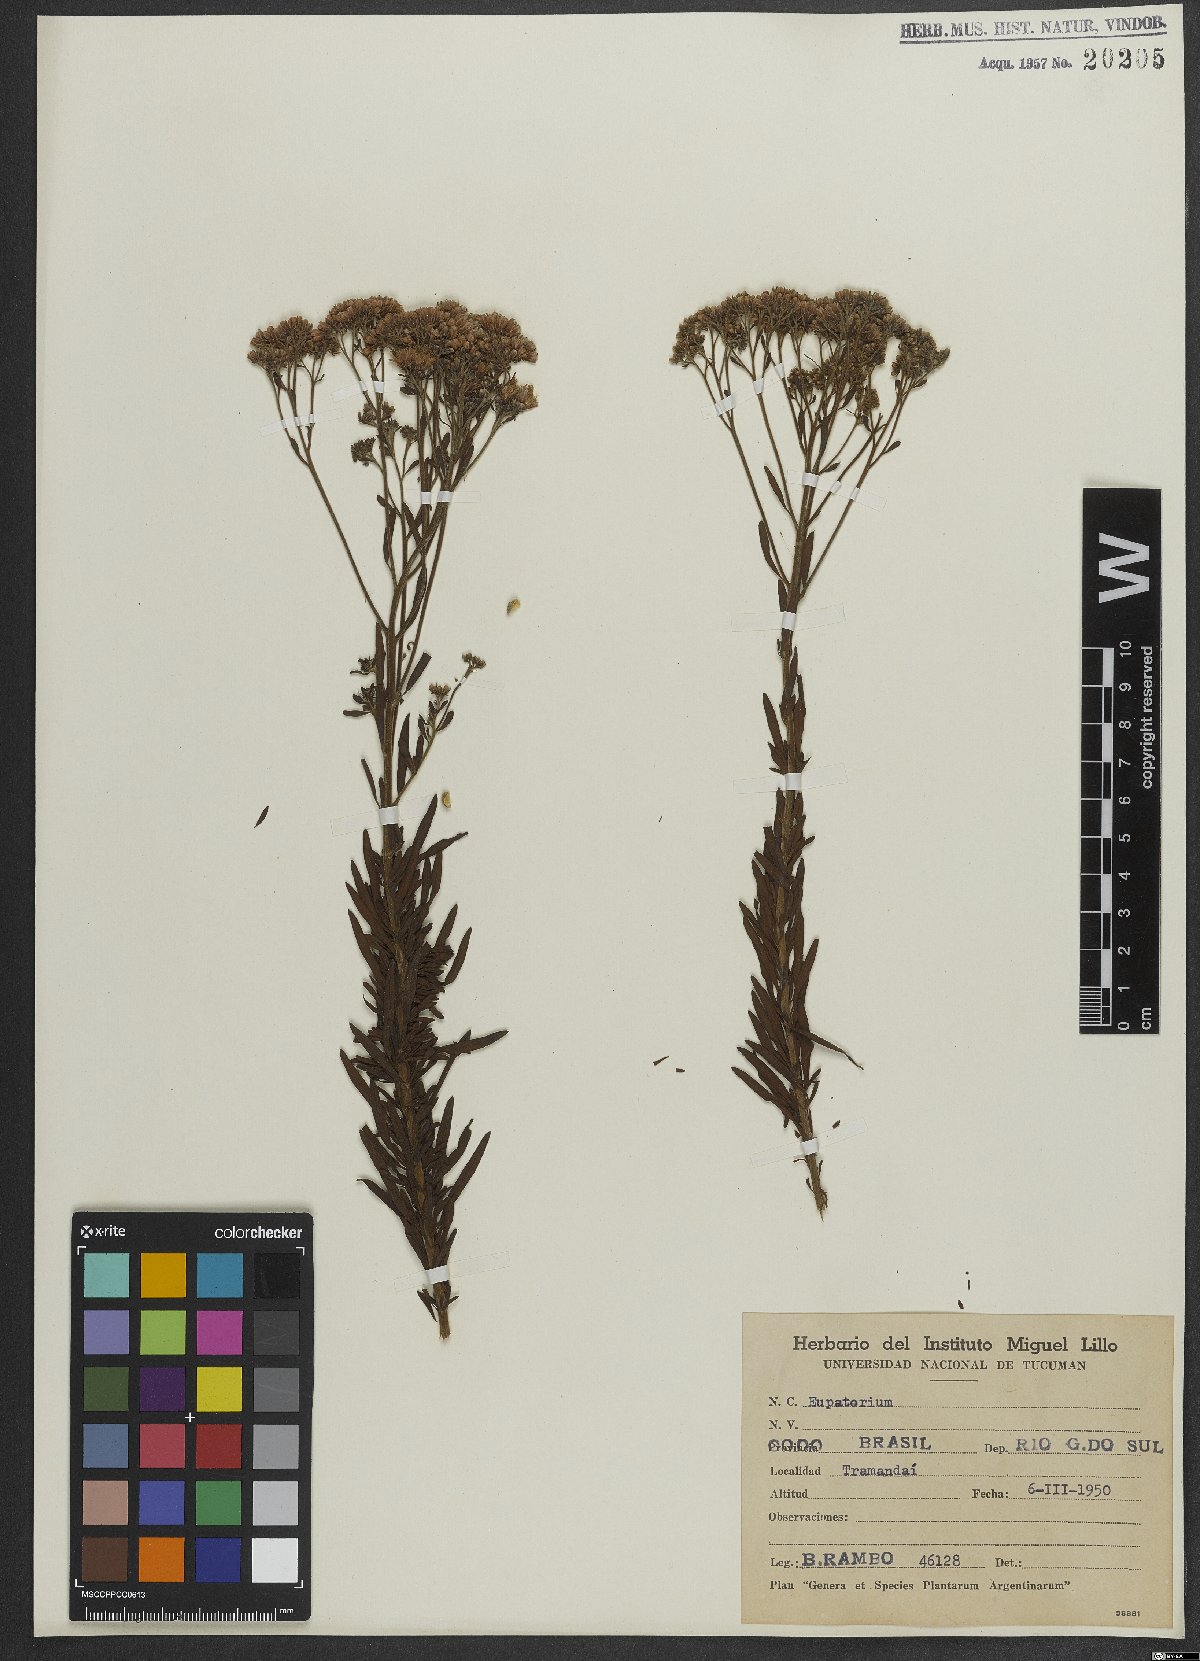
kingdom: Plantae
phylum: Tracheophyta
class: Magnoliopsida
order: Asterales
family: Asteraceae
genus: Eupatorium
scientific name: Eupatorium
